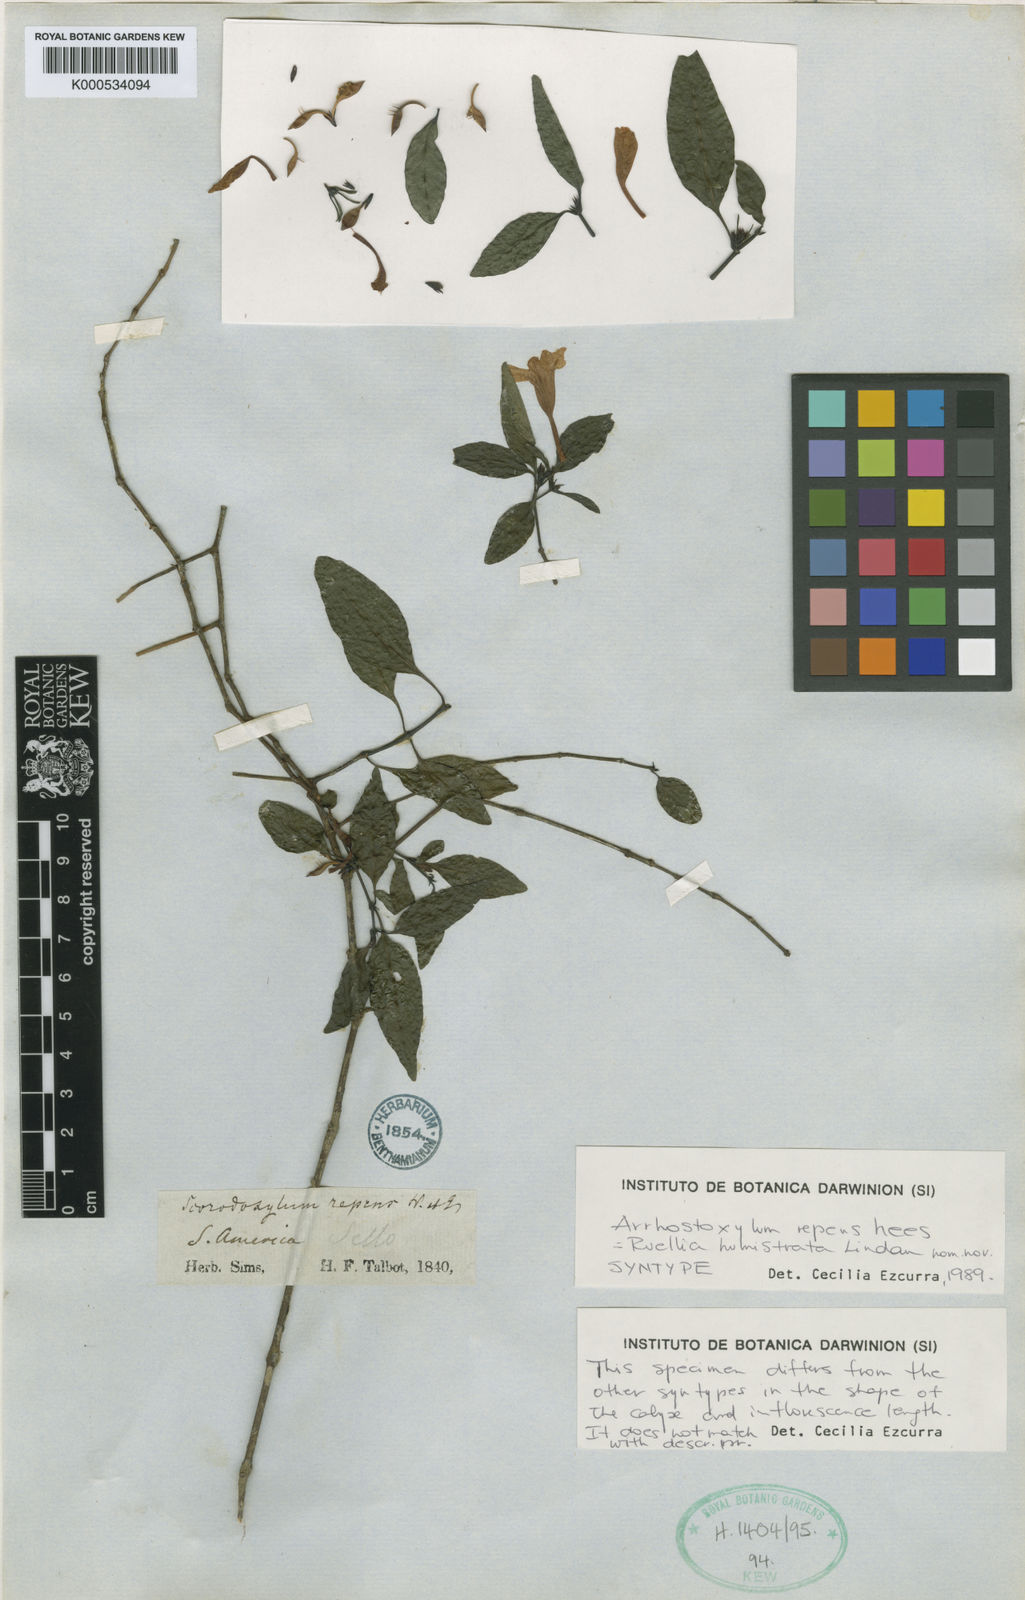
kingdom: Plantae
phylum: Tracheophyta
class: Magnoliopsida
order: Lamiales
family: Acanthaceae
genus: Ruellia
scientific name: Ruellia Arrhostoxylum repens
